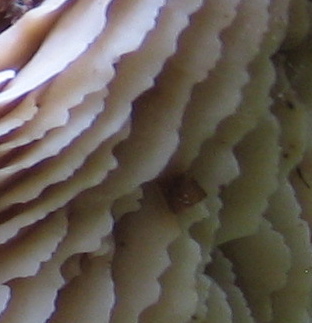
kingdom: Fungi
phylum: Basidiomycota
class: Agaricomycetes
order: Russulales
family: Auriscalpiaceae
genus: Lentinellus
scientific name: Lentinellus cochleatus
